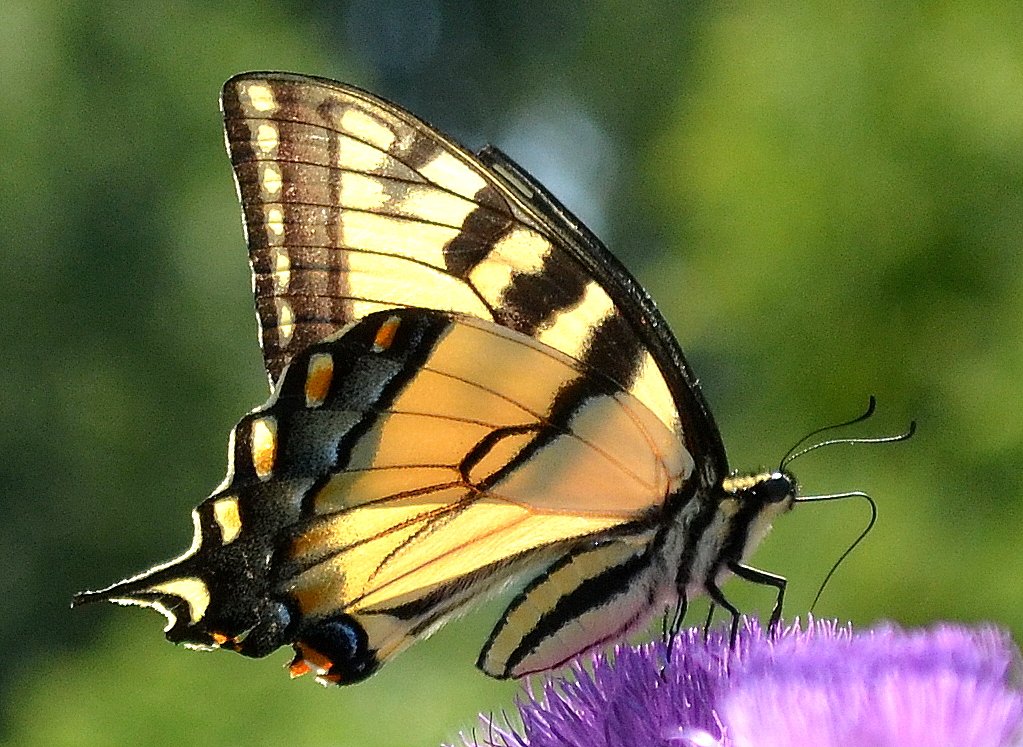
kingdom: Animalia
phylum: Arthropoda
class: Insecta
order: Lepidoptera
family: Papilionidae
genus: Pterourus
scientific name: Pterourus glaucus
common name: Eastern Tiger Swallowtail
